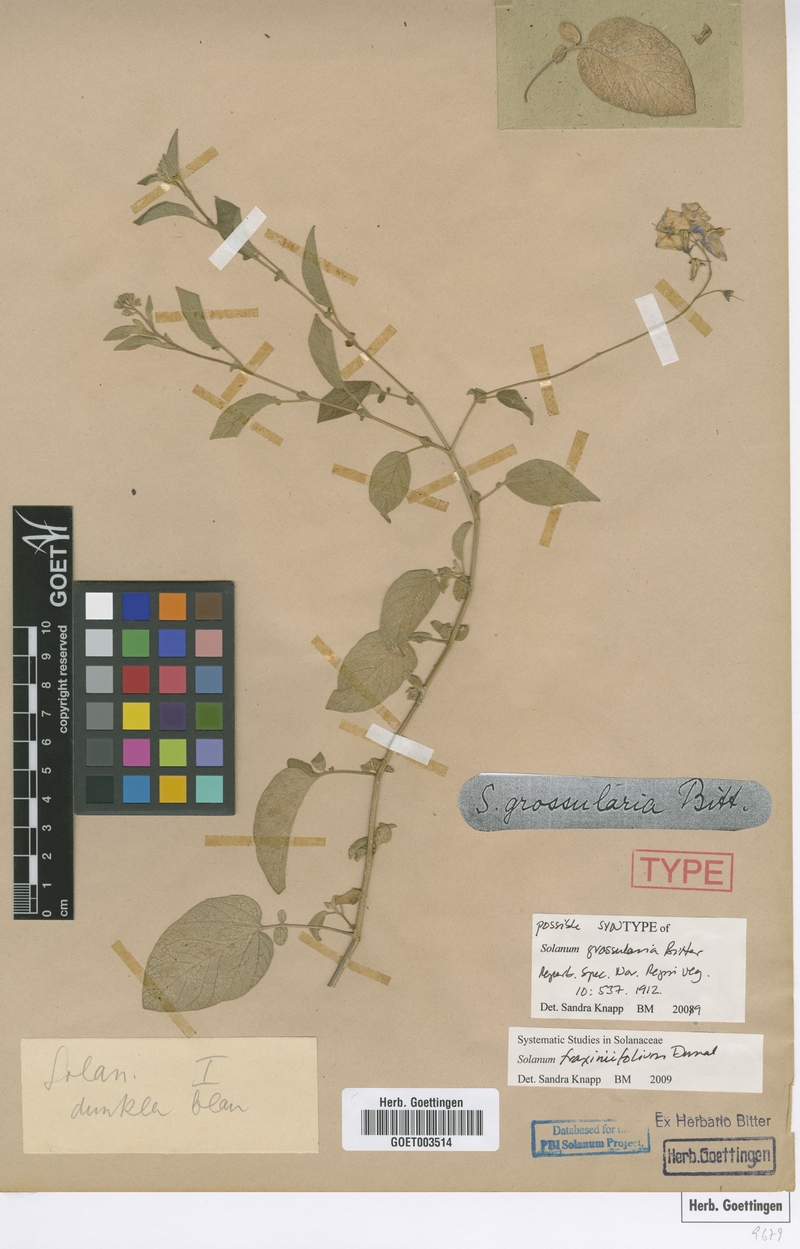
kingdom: Plantae
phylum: Tracheophyta
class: Magnoliopsida
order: Solanales
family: Solanaceae
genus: Solanum
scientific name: Solanum fraxinifolium
